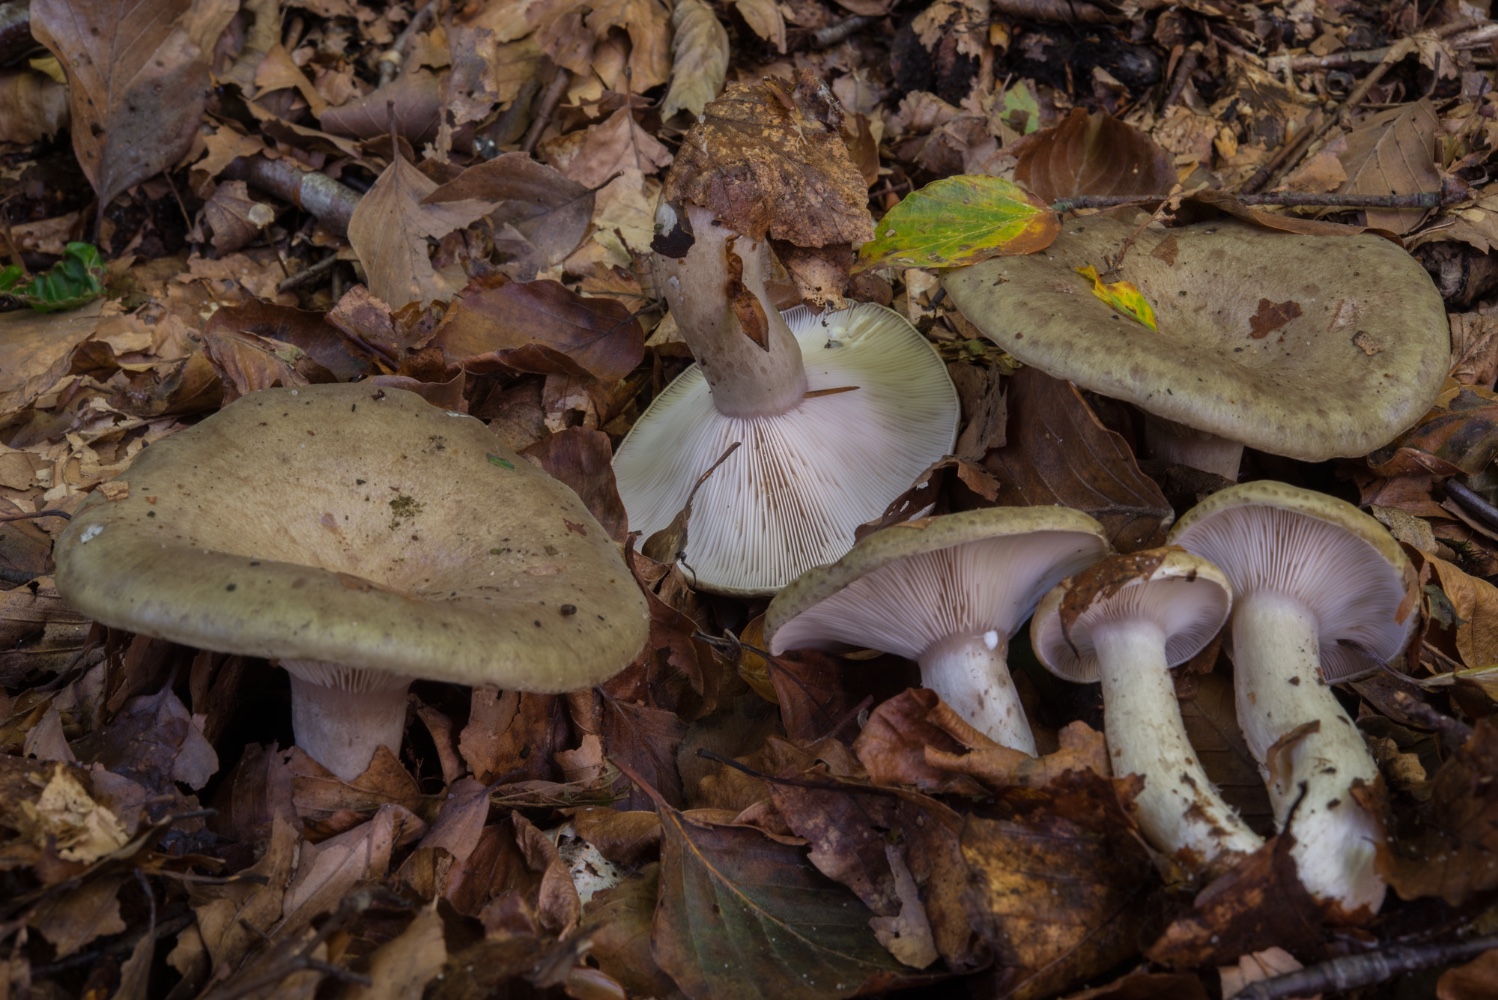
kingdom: Fungi
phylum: Basidiomycota
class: Agaricomycetes
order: Russulales
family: Russulaceae
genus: Lactarius
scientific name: Lactarius blennius
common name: dråbeplettet mælkehat
